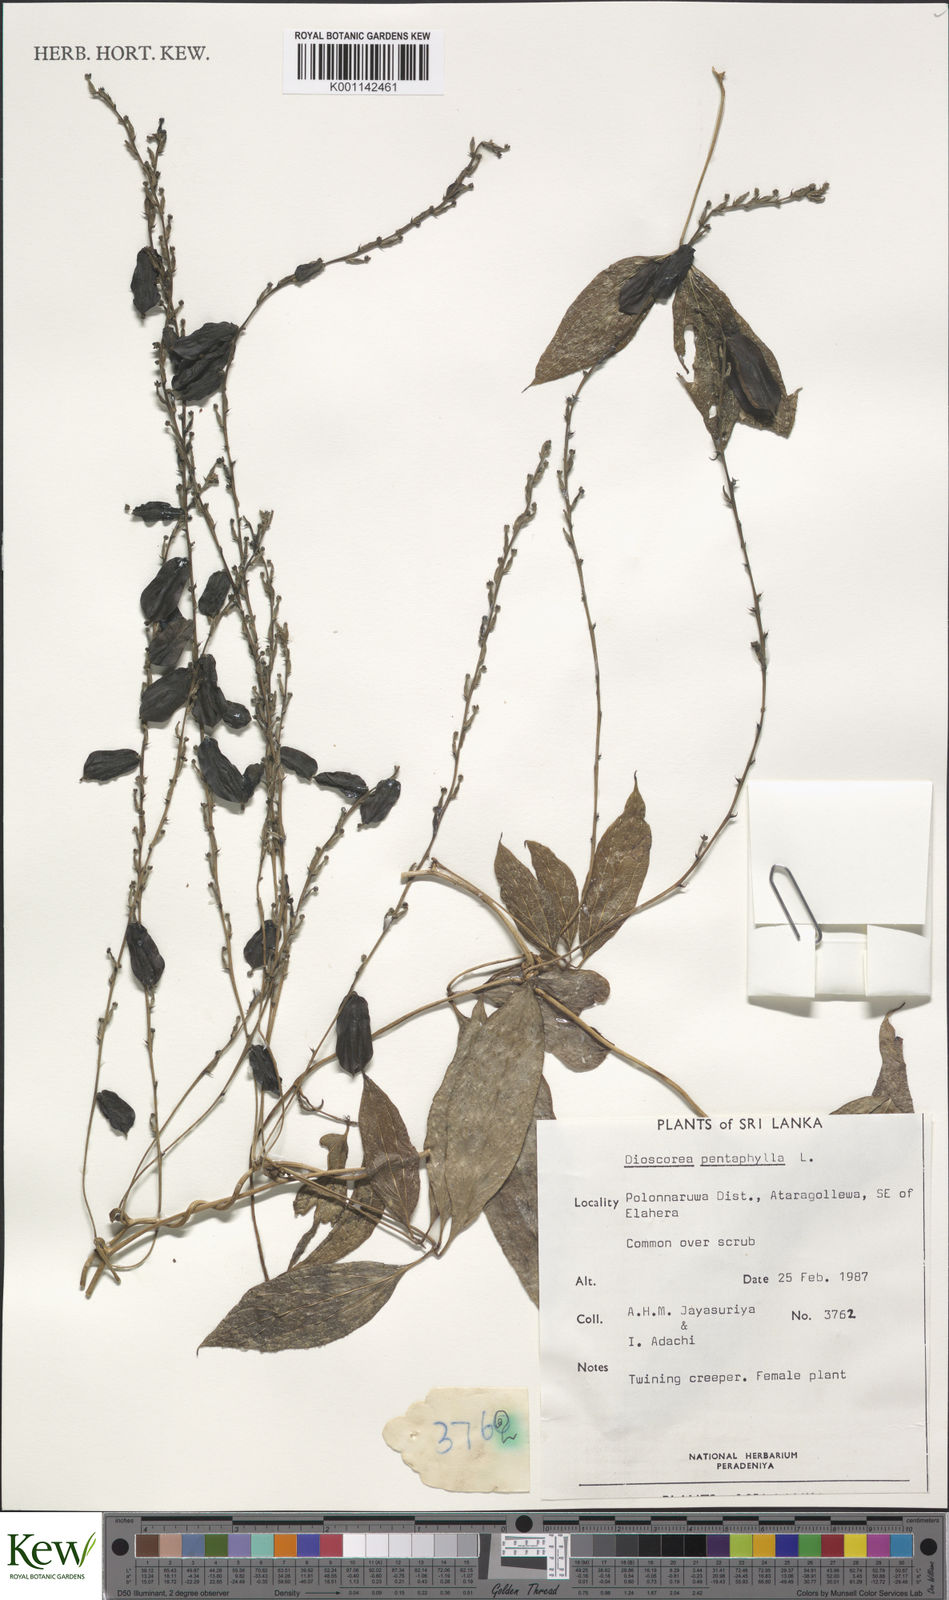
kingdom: Plantae
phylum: Tracheophyta
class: Liliopsida
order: Dioscoreales
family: Dioscoreaceae
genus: Dioscorea
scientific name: Dioscorea pentaphylla
